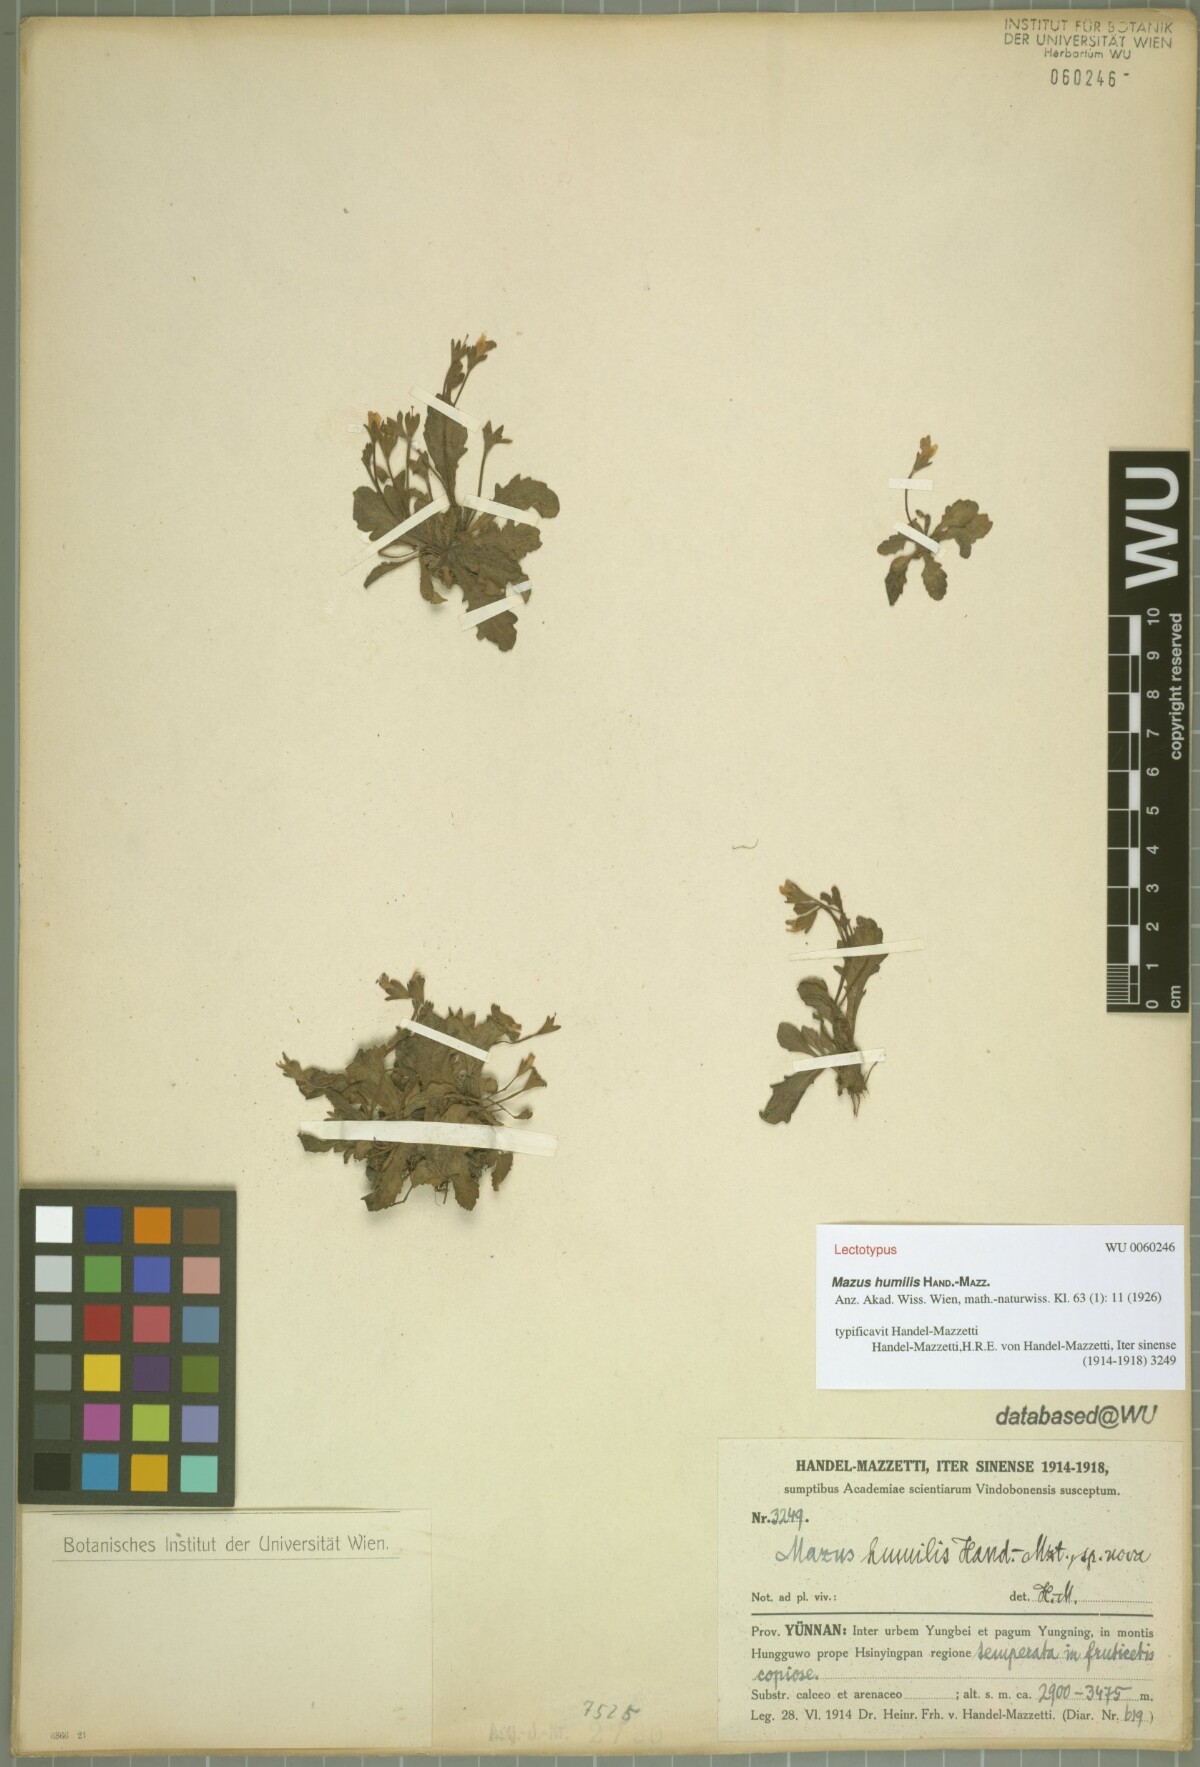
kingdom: Plantae
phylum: Tracheophyta
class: Magnoliopsida
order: Lamiales
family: Mazaceae
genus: Mazus
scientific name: Mazus humilis
